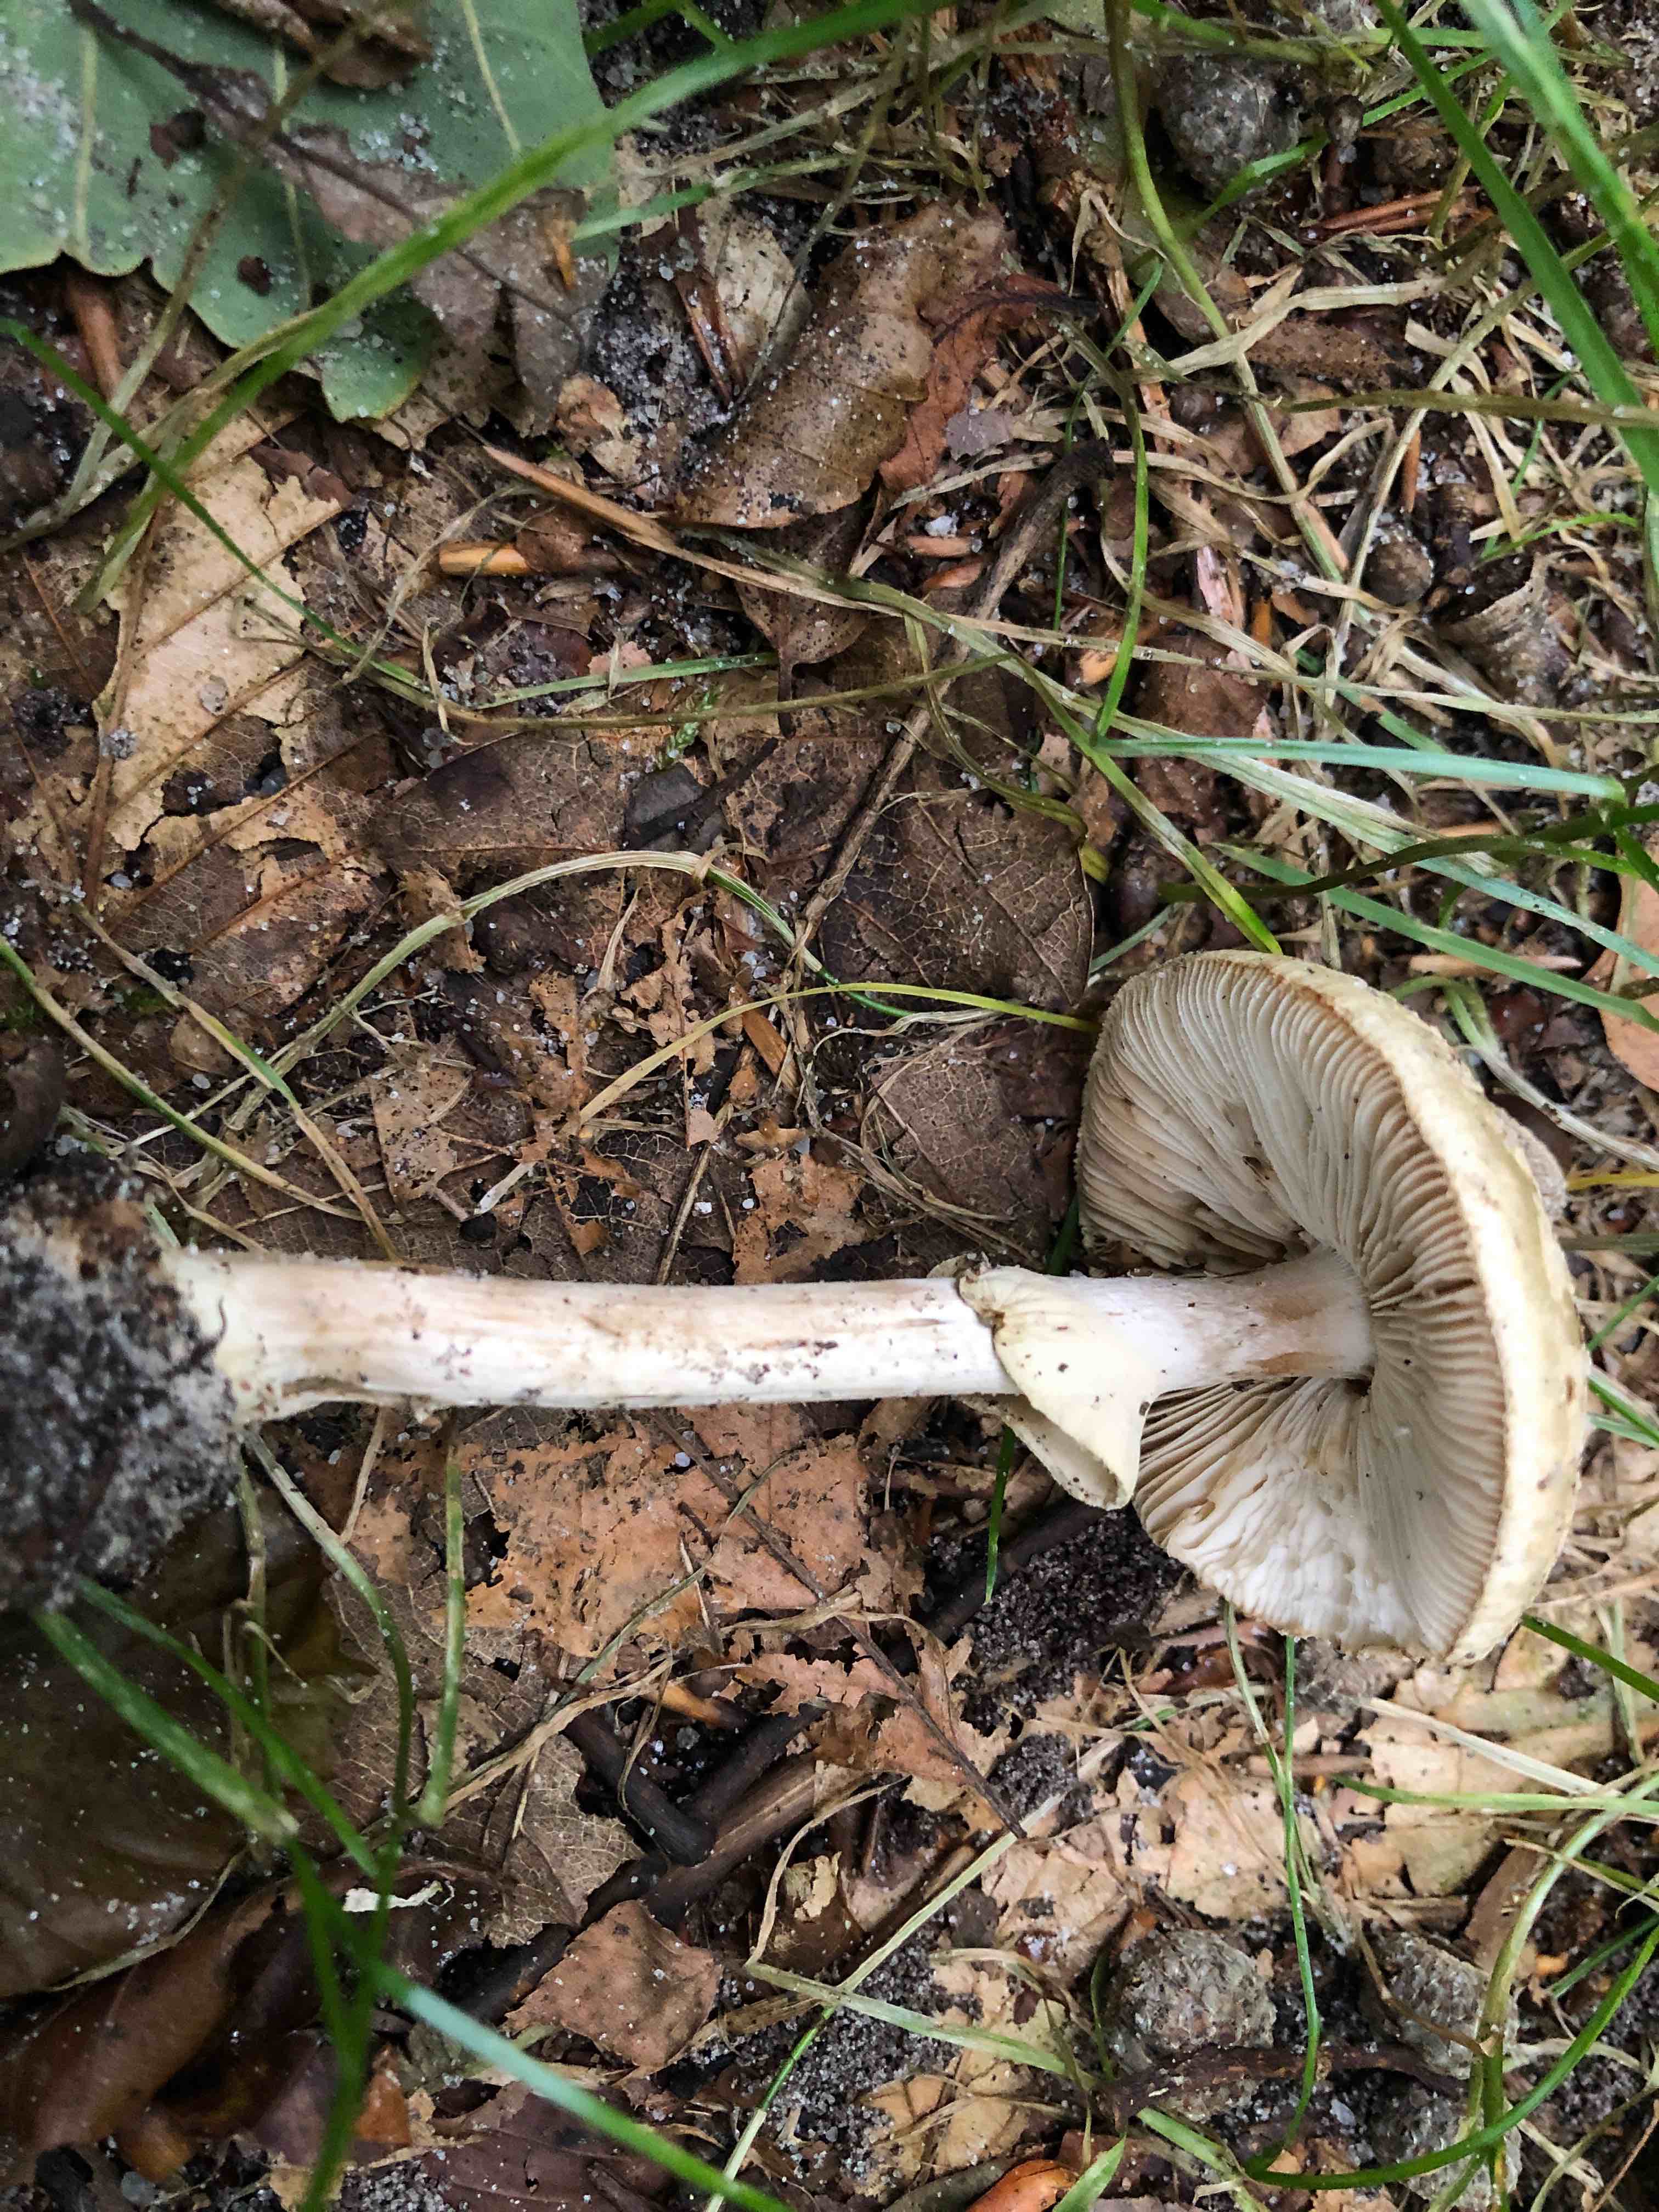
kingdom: Fungi
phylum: Basidiomycota
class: Agaricomycetes
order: Agaricales
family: Amanitaceae
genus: Amanita
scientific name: Amanita citrina
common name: kugleknoldet fluesvamp
